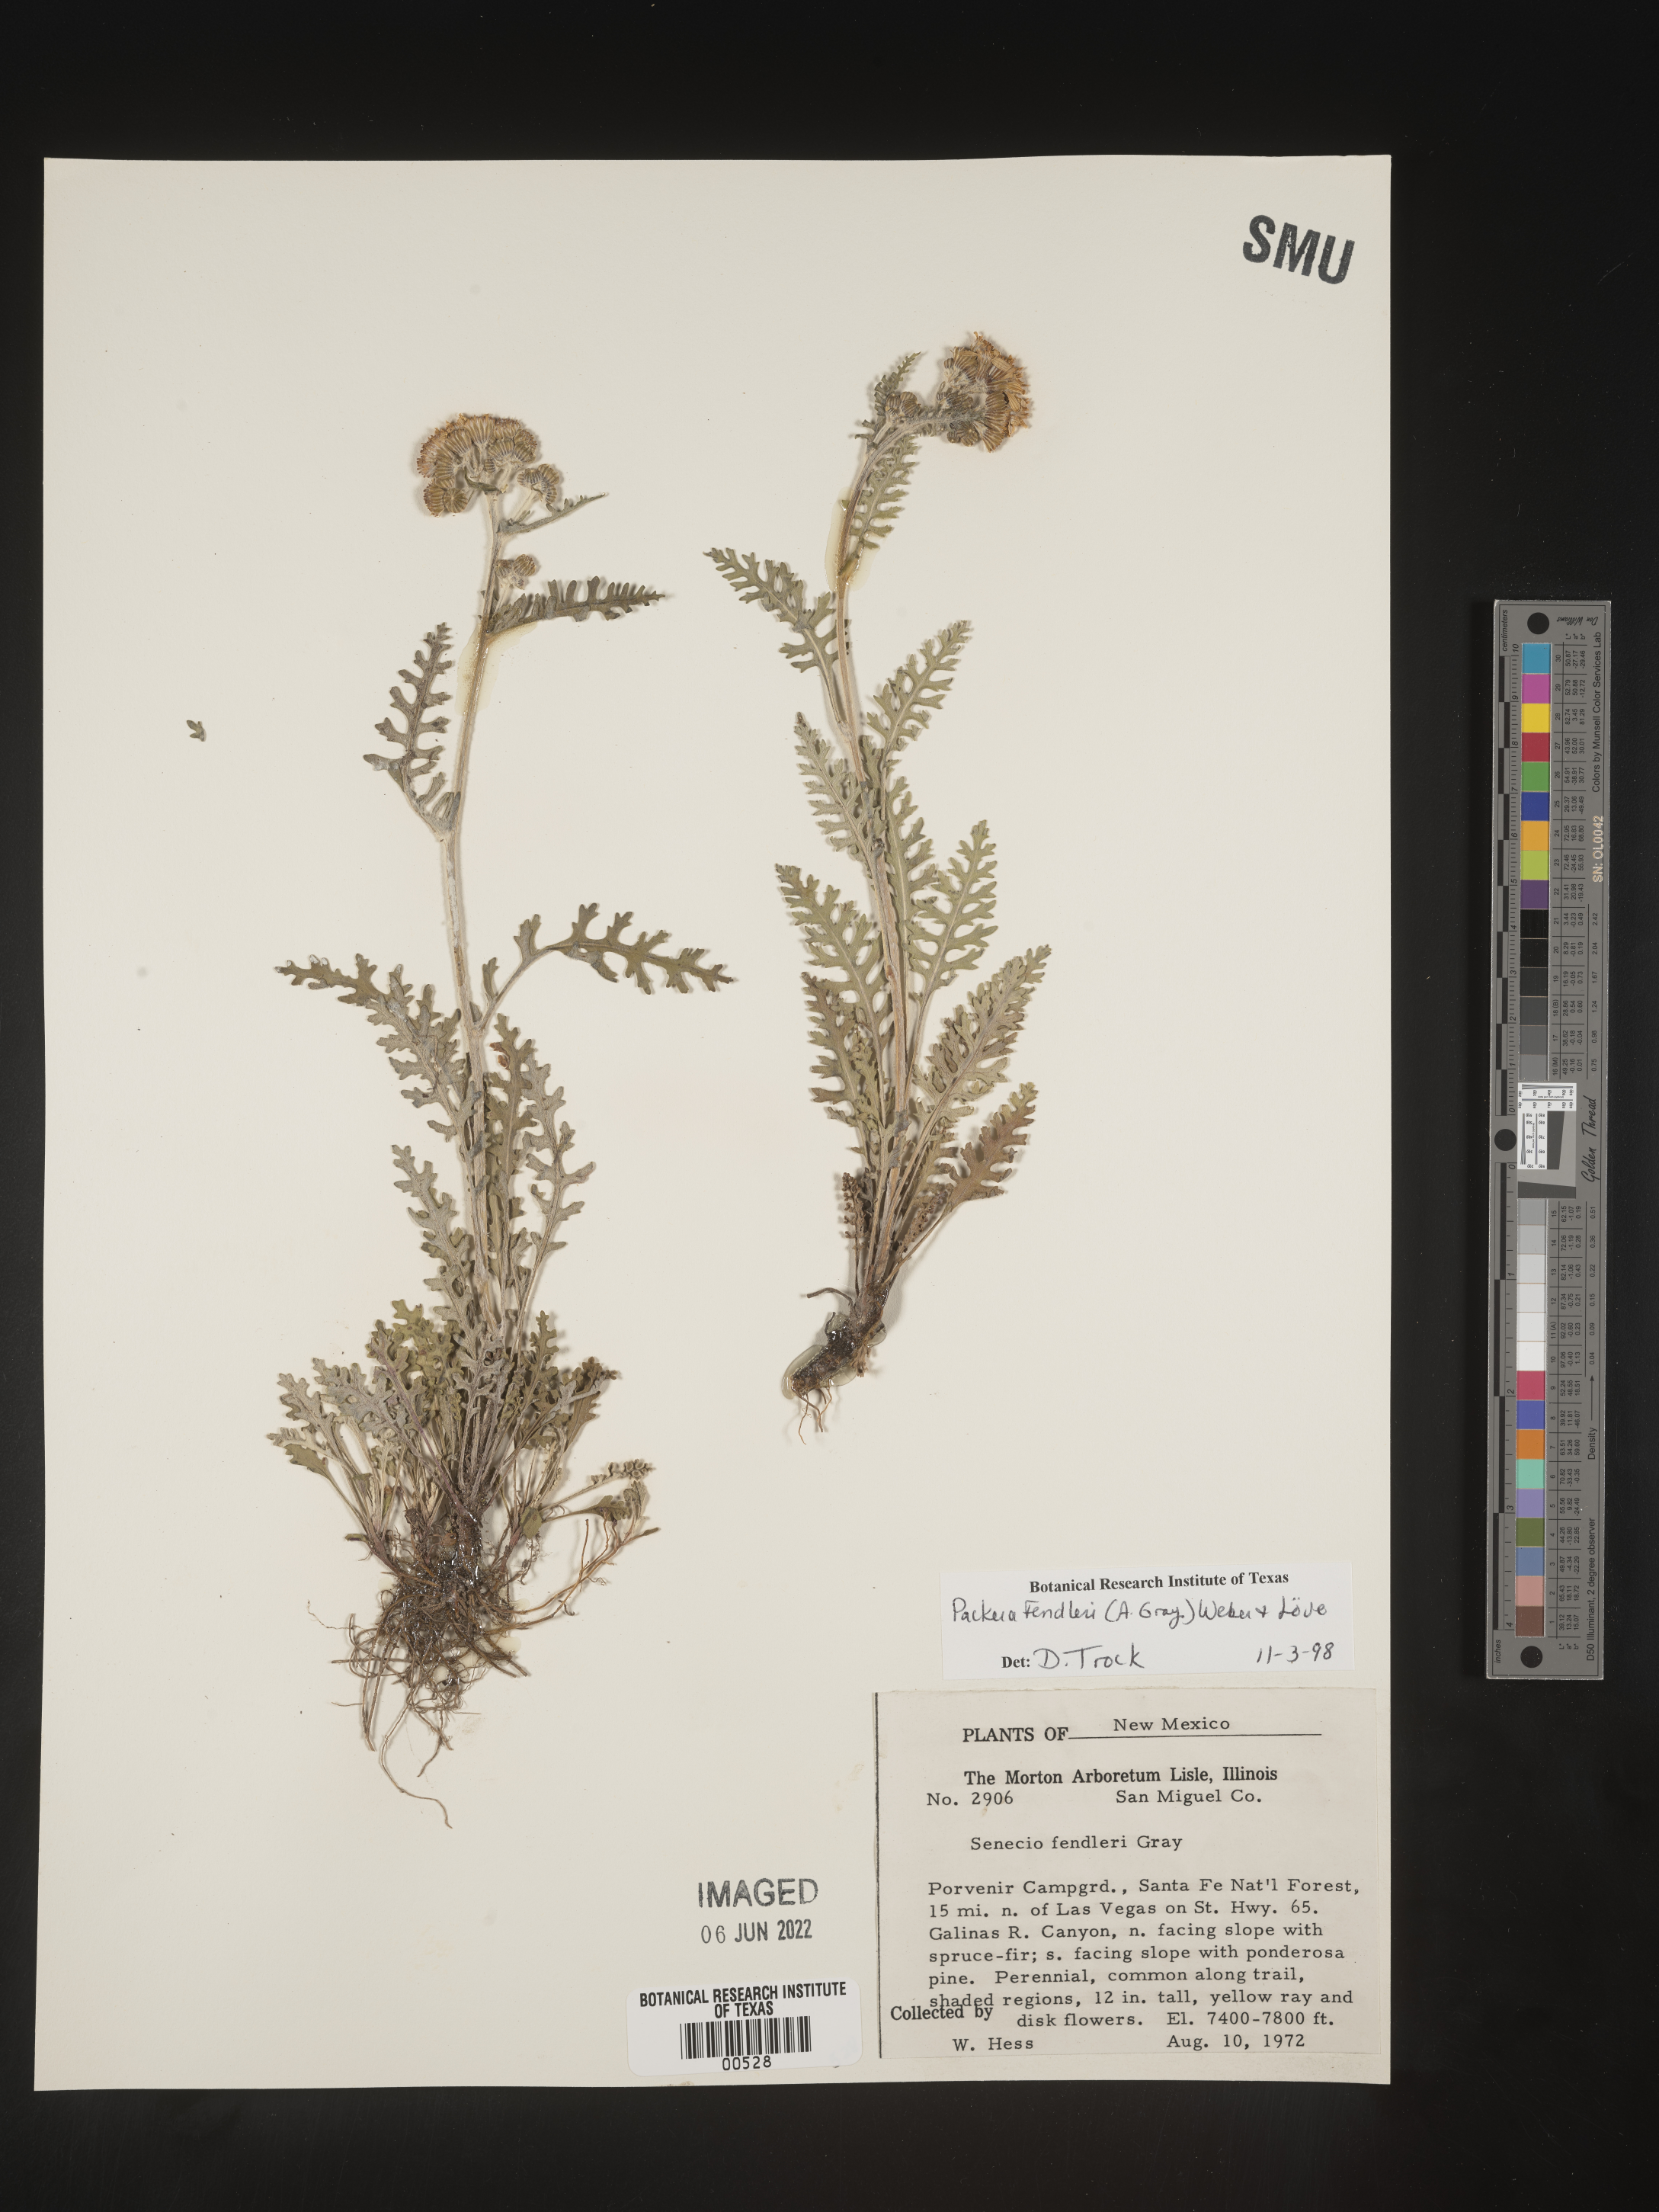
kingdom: Plantae
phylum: Tracheophyta
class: Magnoliopsida
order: Asterales
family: Asteraceae
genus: Packera
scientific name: Packera fendleri
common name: Notch-leaf butterweed
